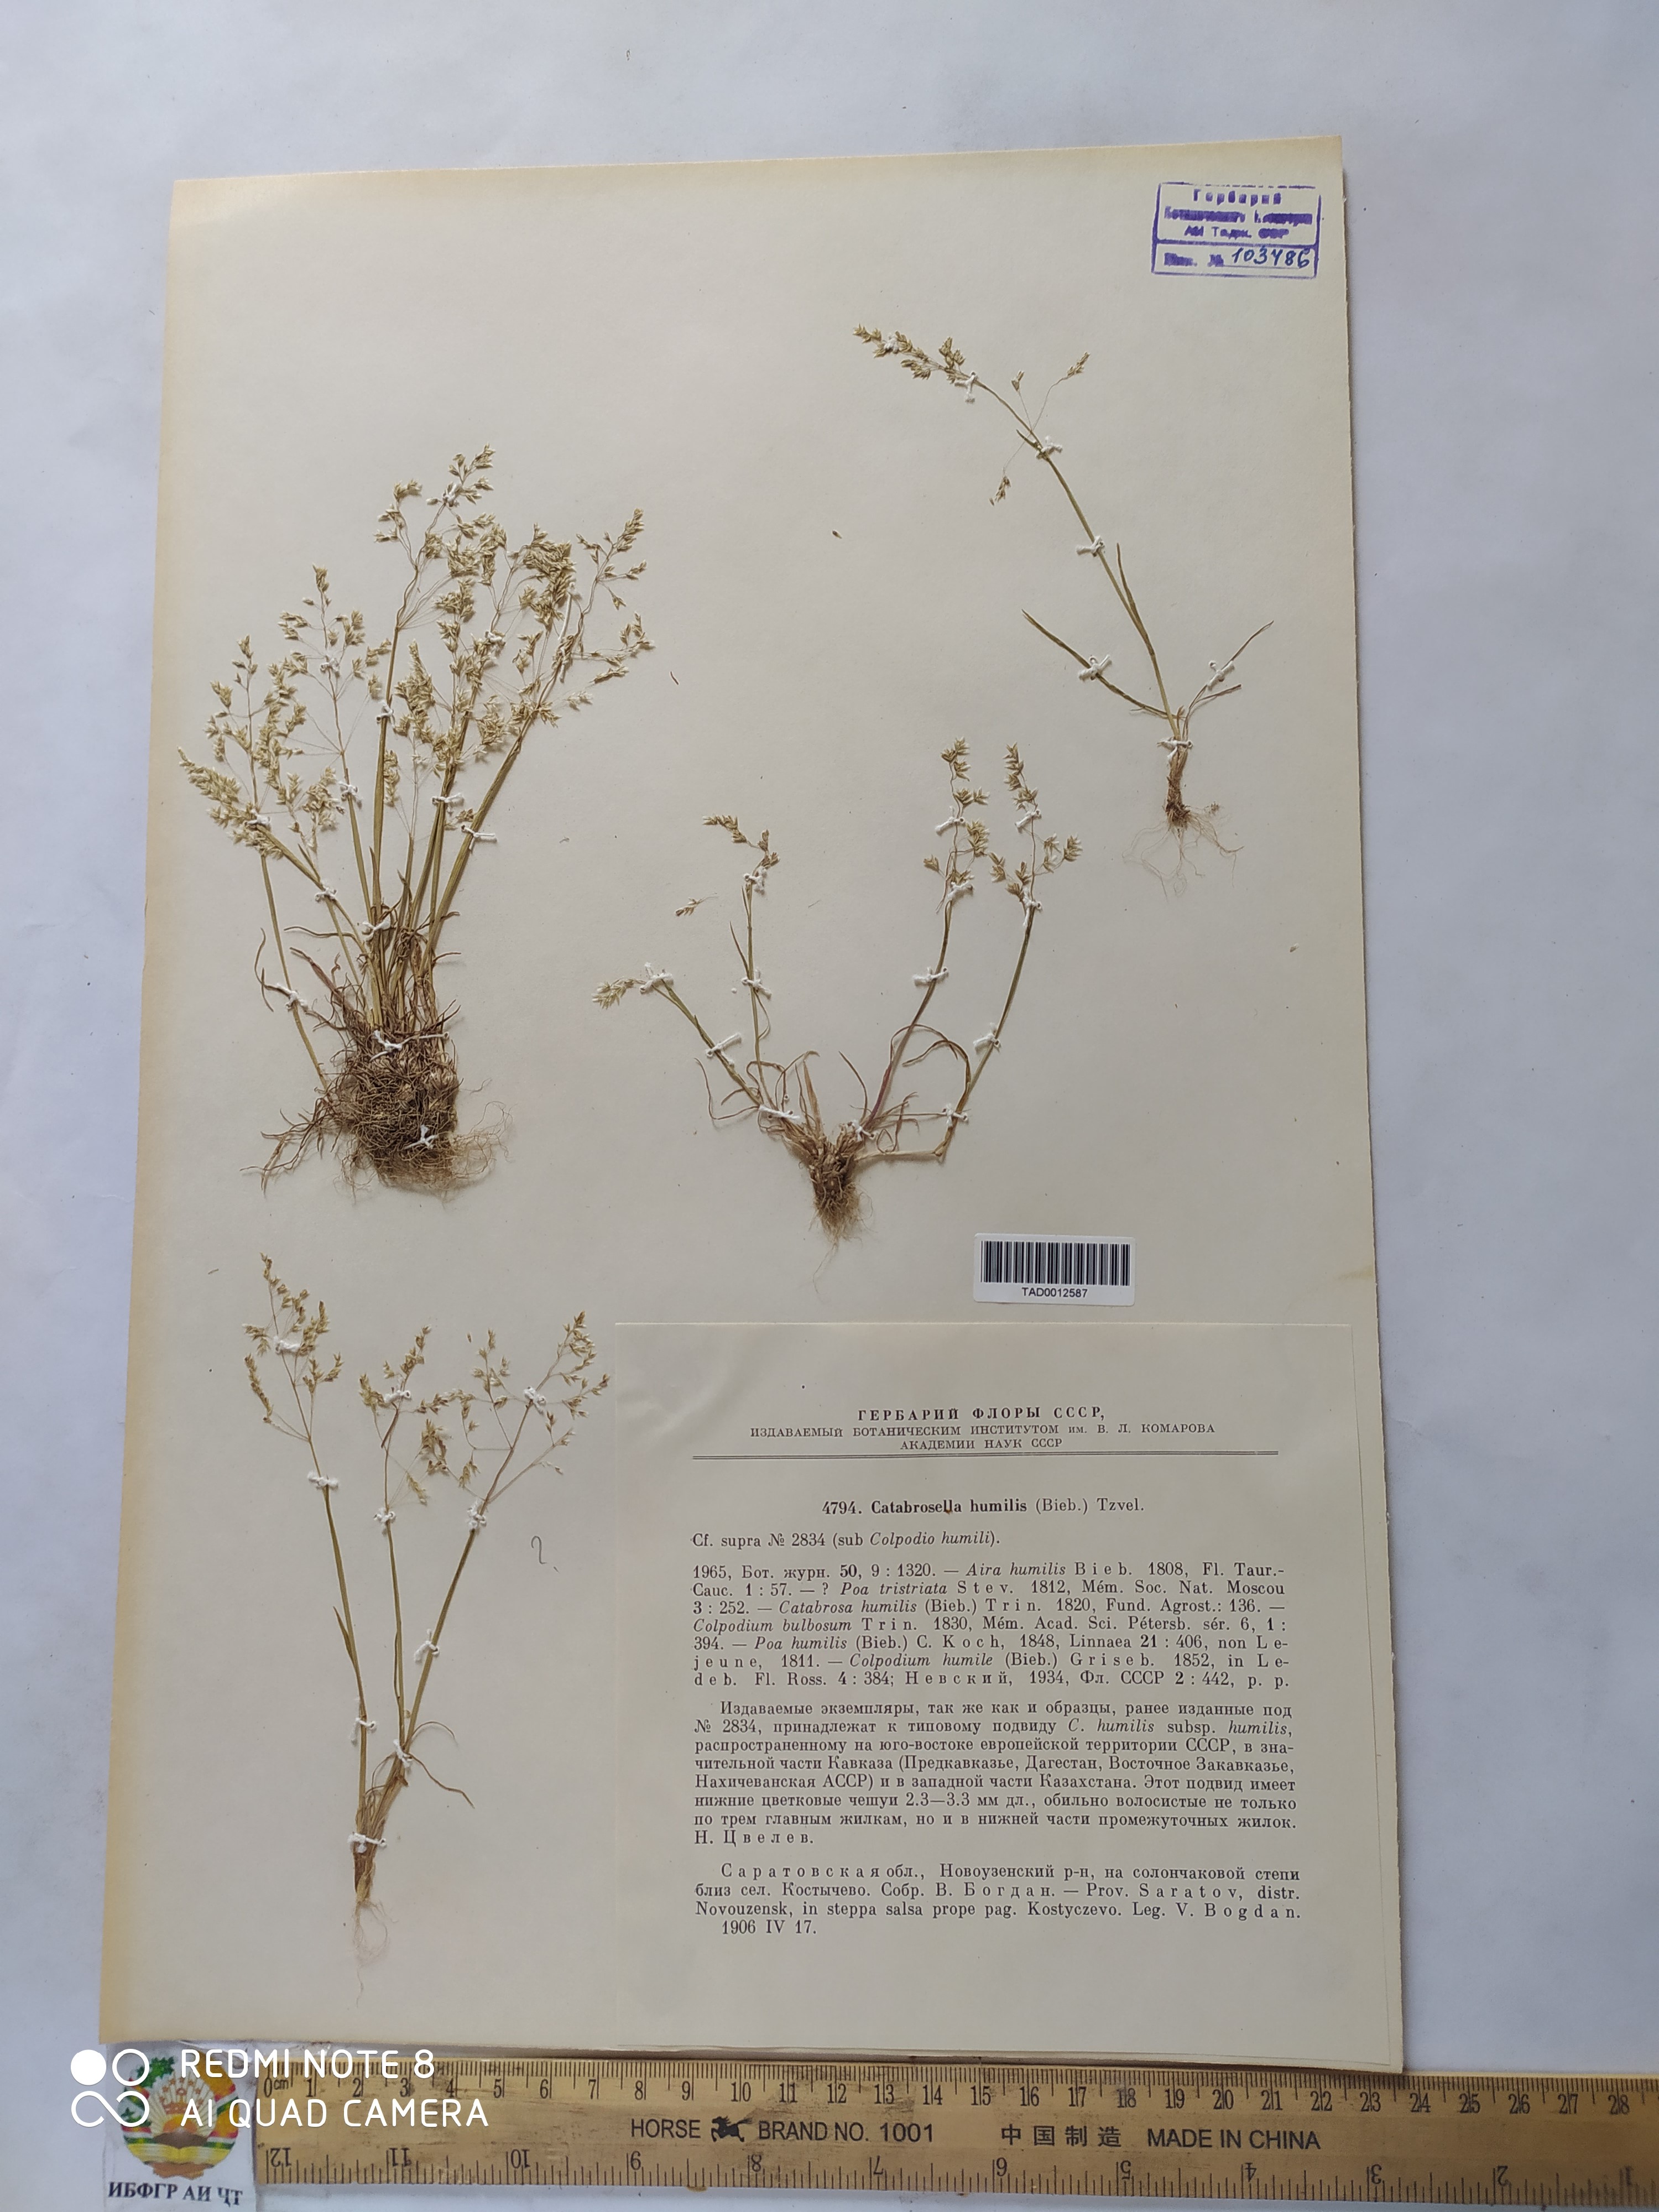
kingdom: Plantae
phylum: Tracheophyta
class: Liliopsida
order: Poales
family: Poaceae
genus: Catabrosella
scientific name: Catabrosella humilis
